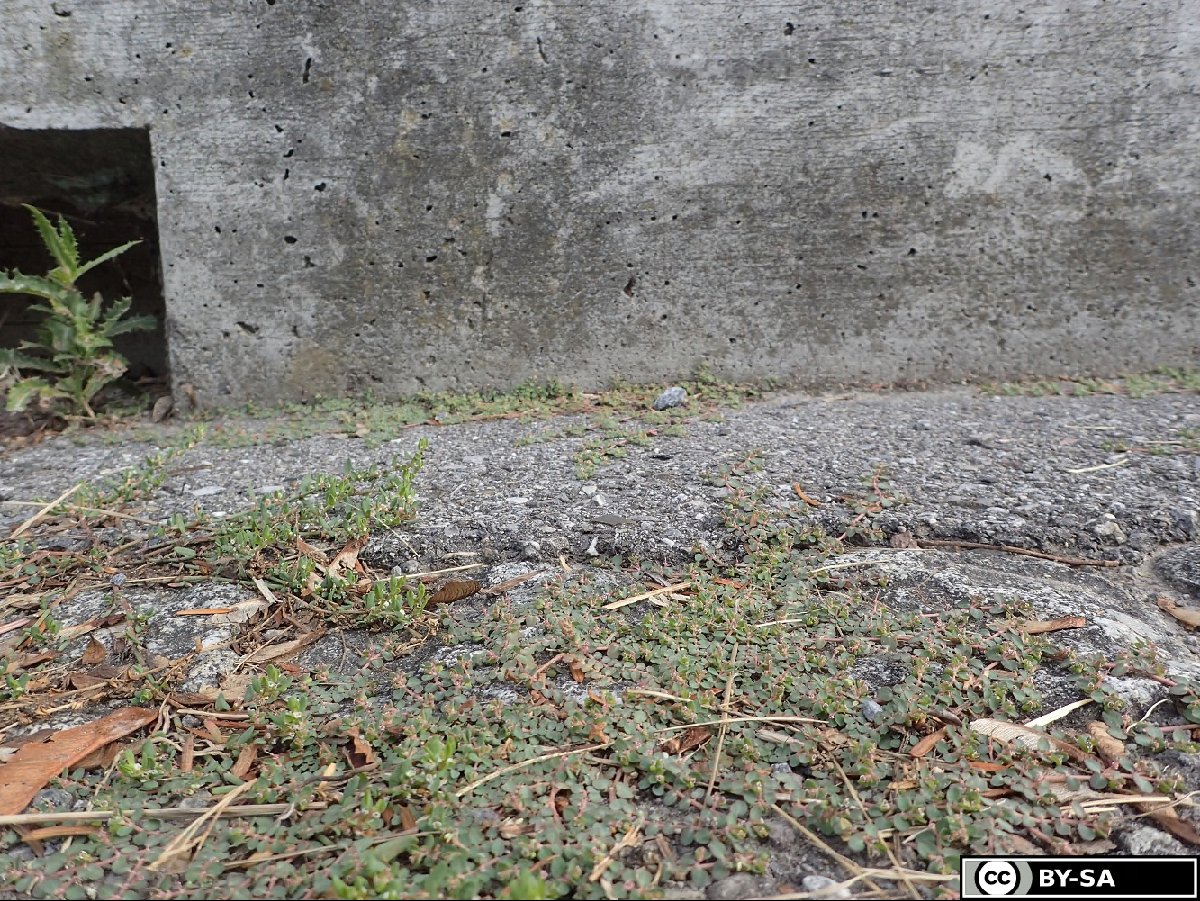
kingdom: Plantae
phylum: Tracheophyta
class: Magnoliopsida
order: Malpighiales
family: Euphorbiaceae
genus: Euphorbia
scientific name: Euphorbia serpens
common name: Matted sandmat
